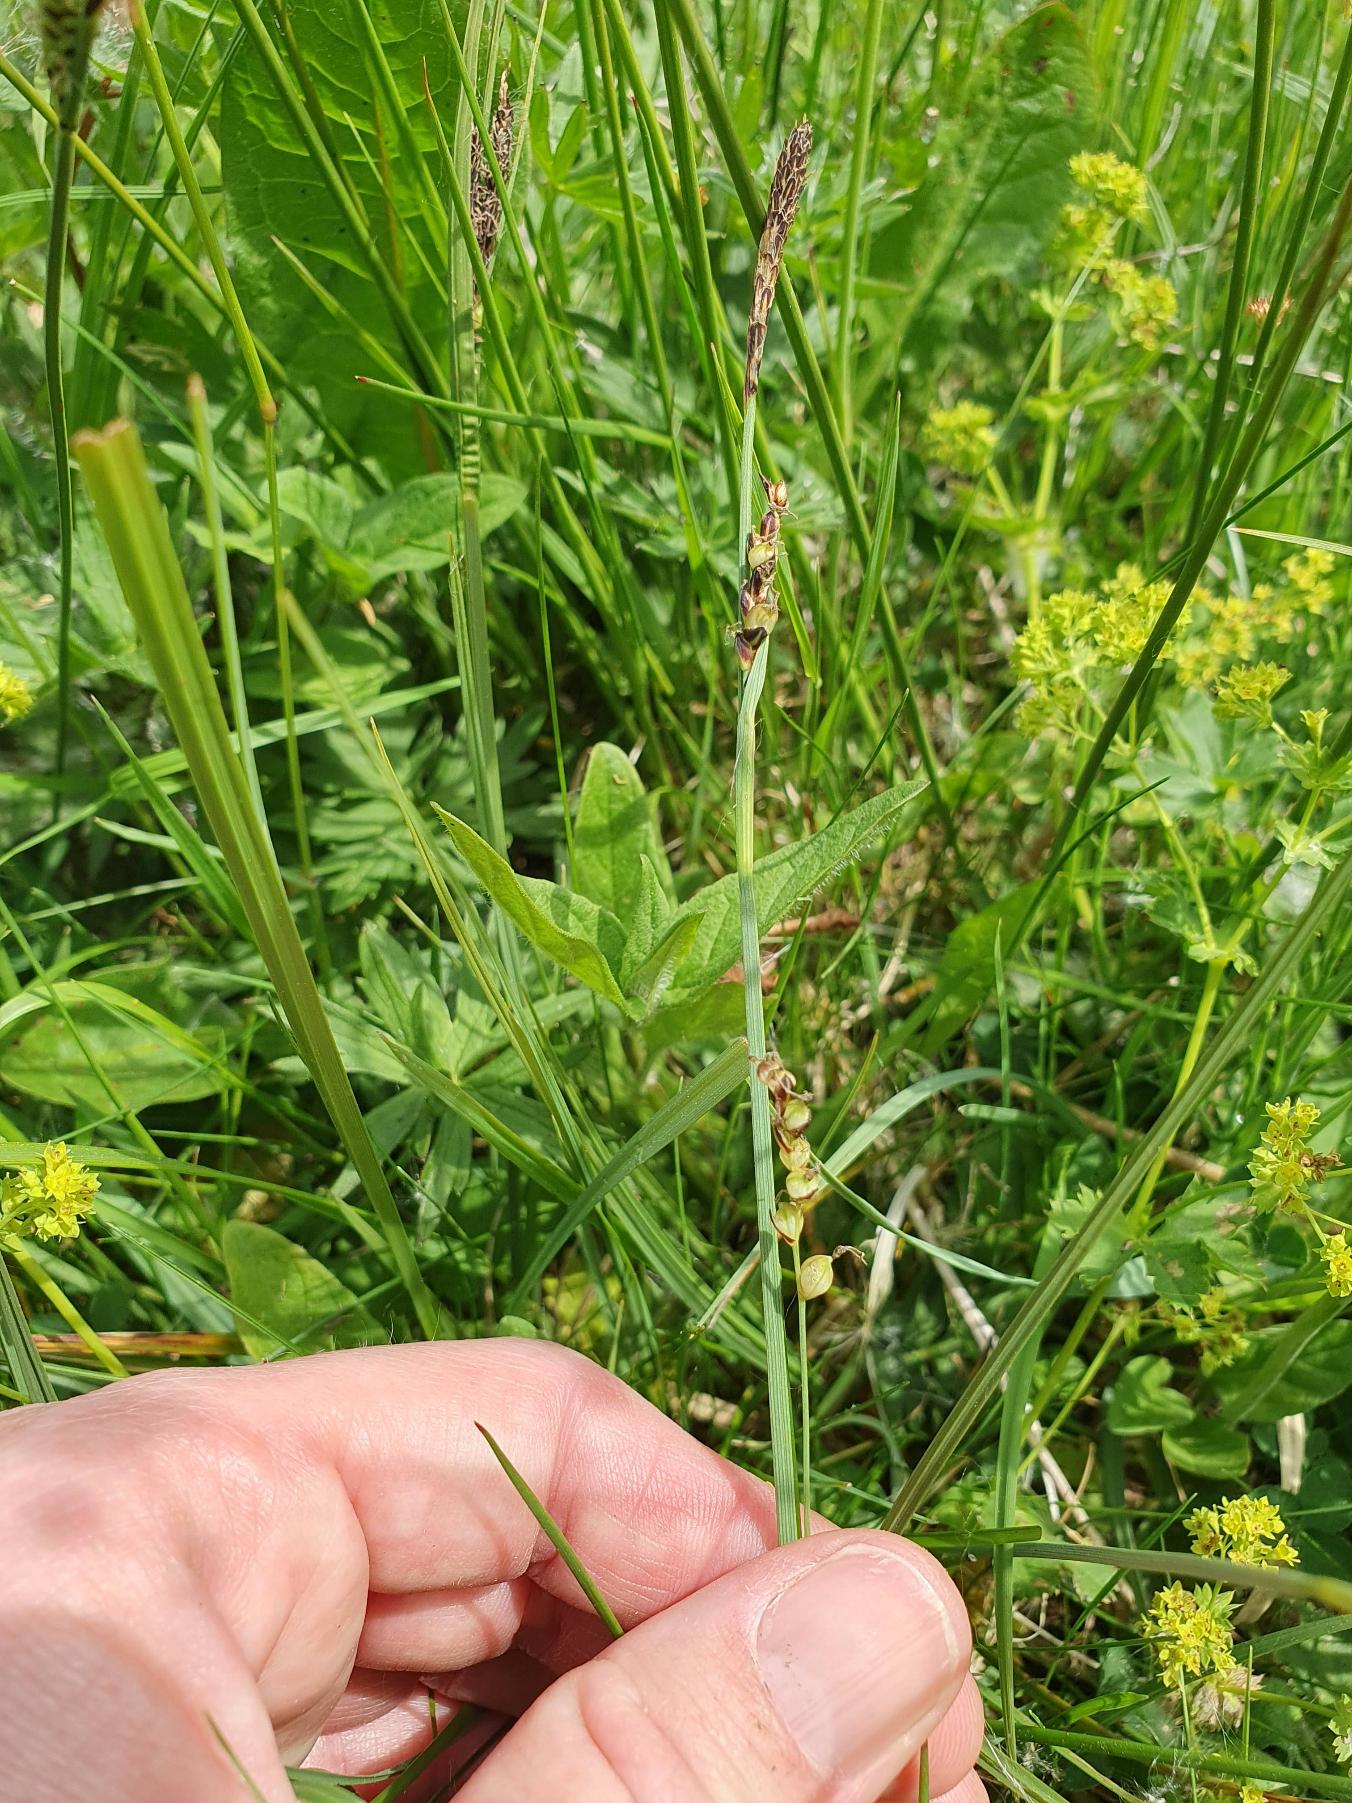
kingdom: Plantae
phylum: Tracheophyta
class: Liliopsida
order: Poales
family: Cyperaceae
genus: Carex
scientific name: Carex panicea
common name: Hirse-star
